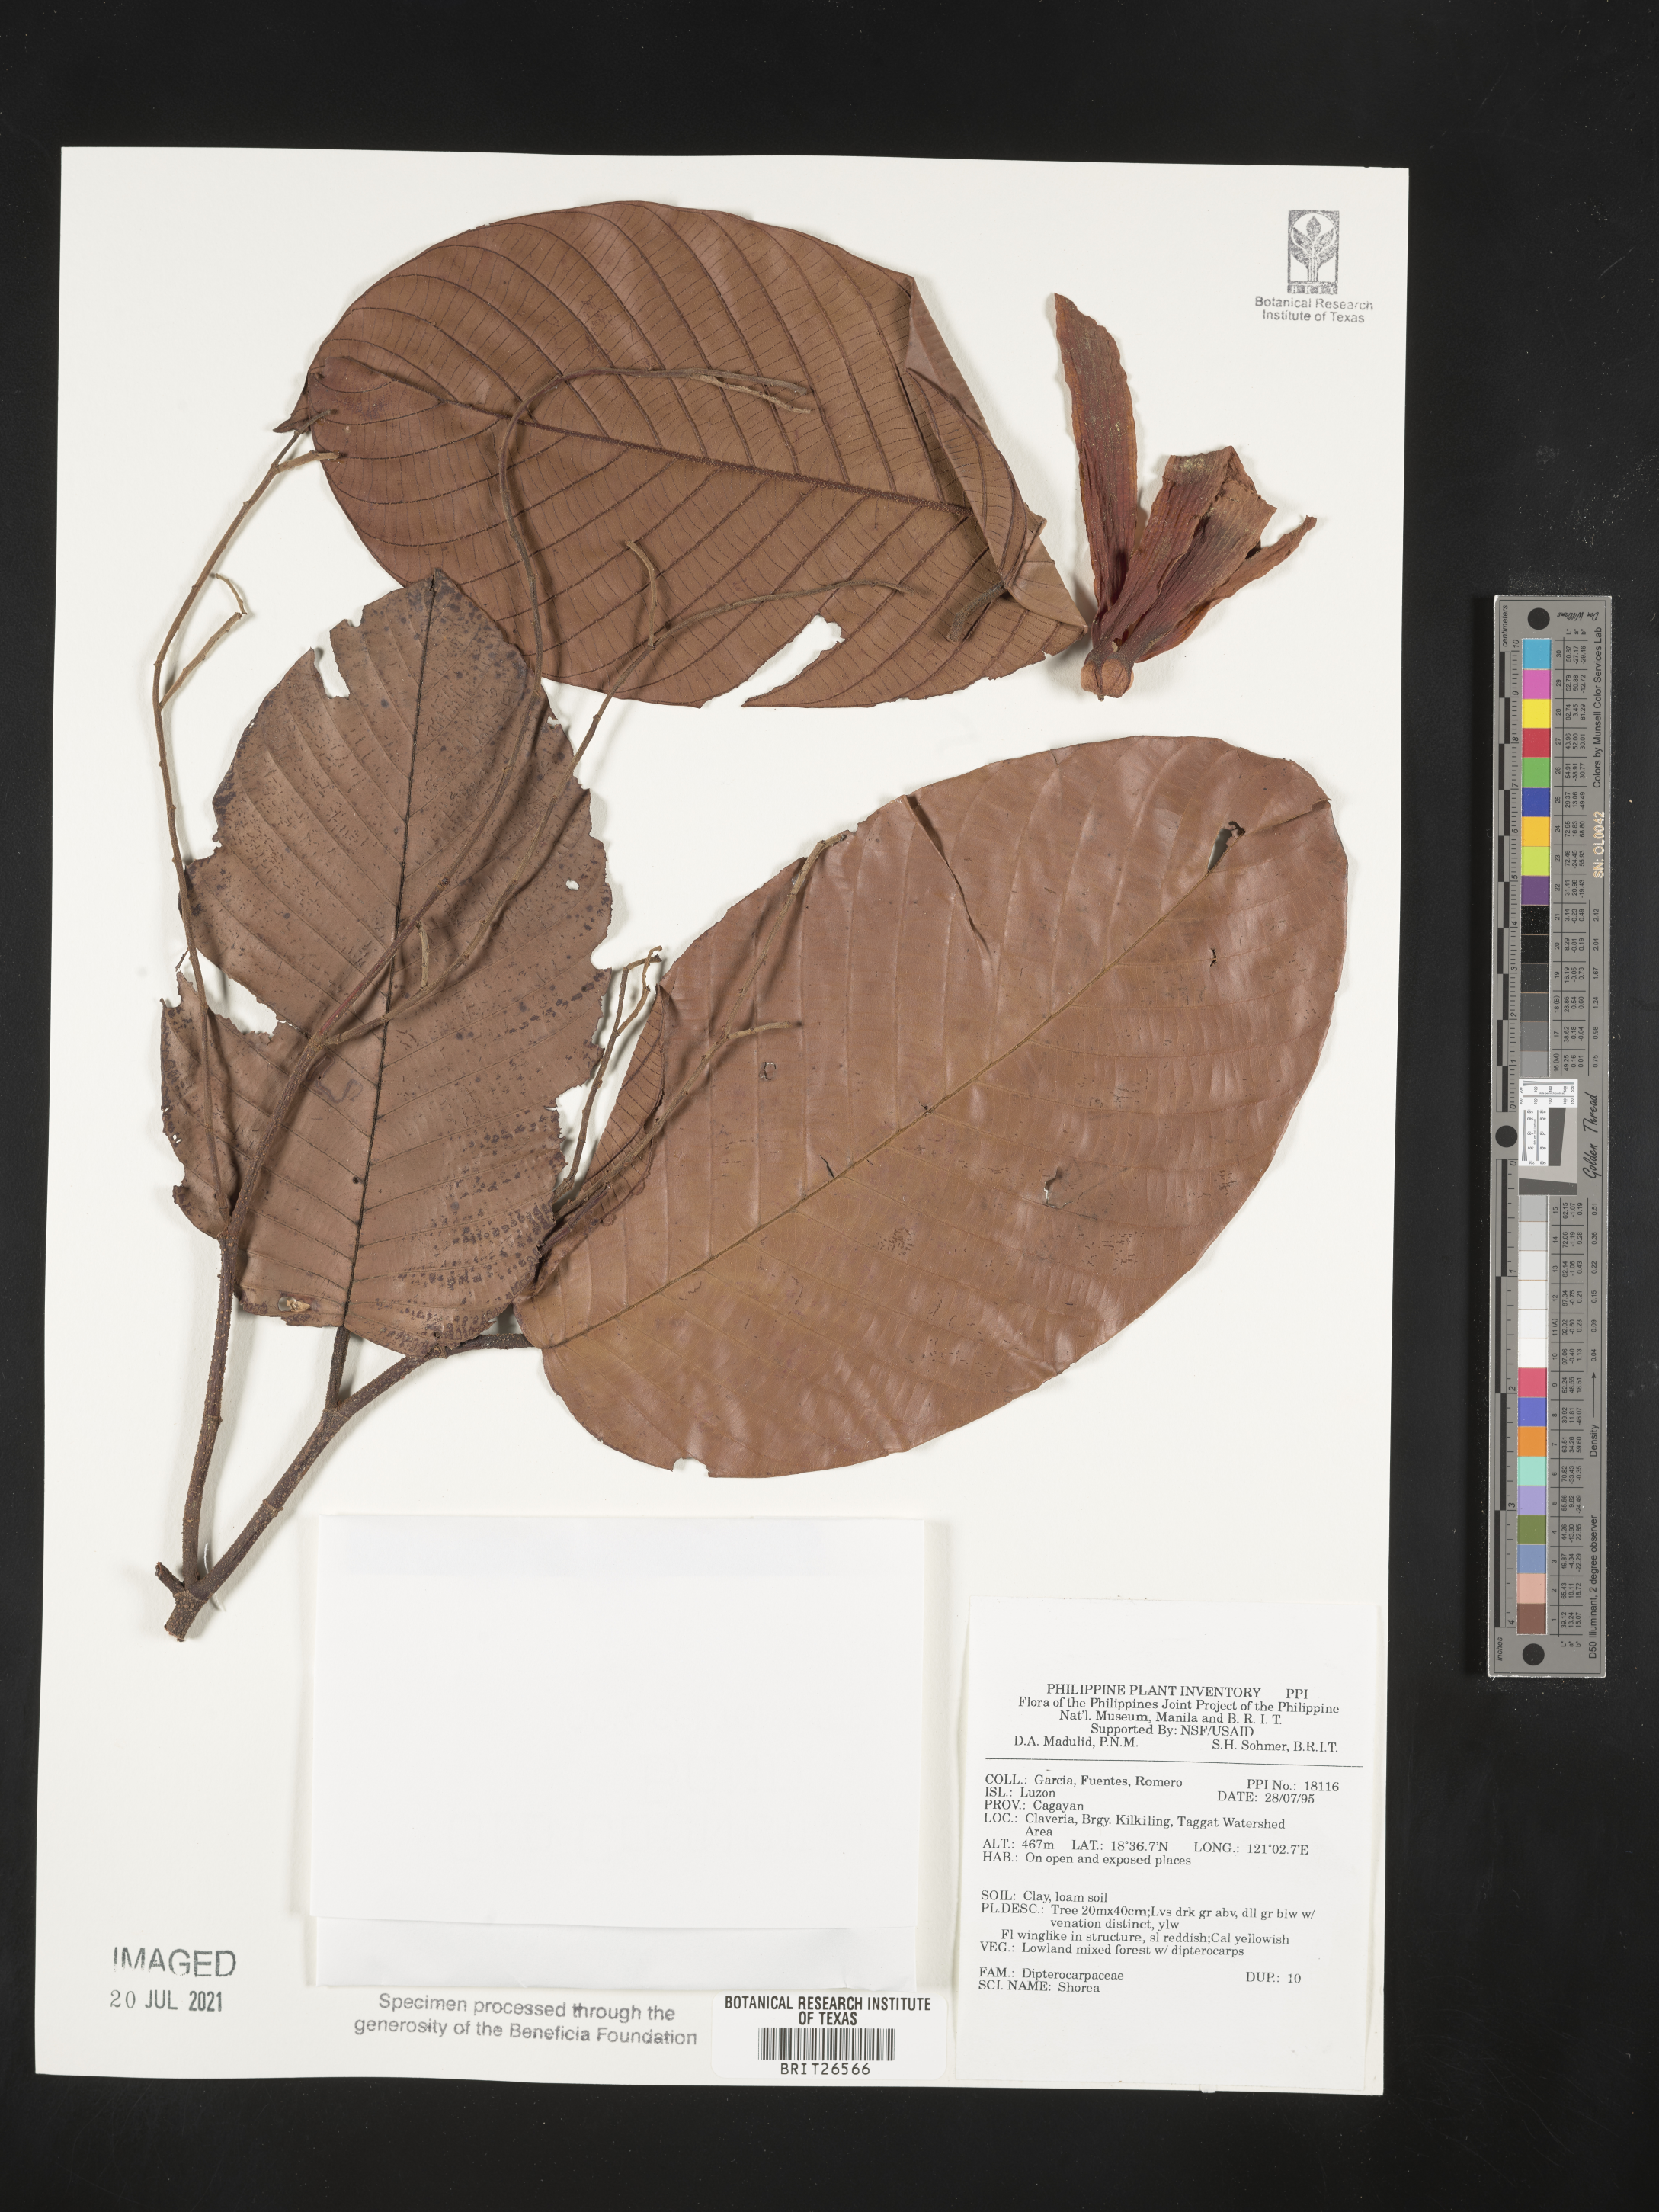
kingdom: Plantae
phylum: Tracheophyta
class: Magnoliopsida
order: Malvales
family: Dipterocarpaceae
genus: Shorea
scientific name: Shorea
